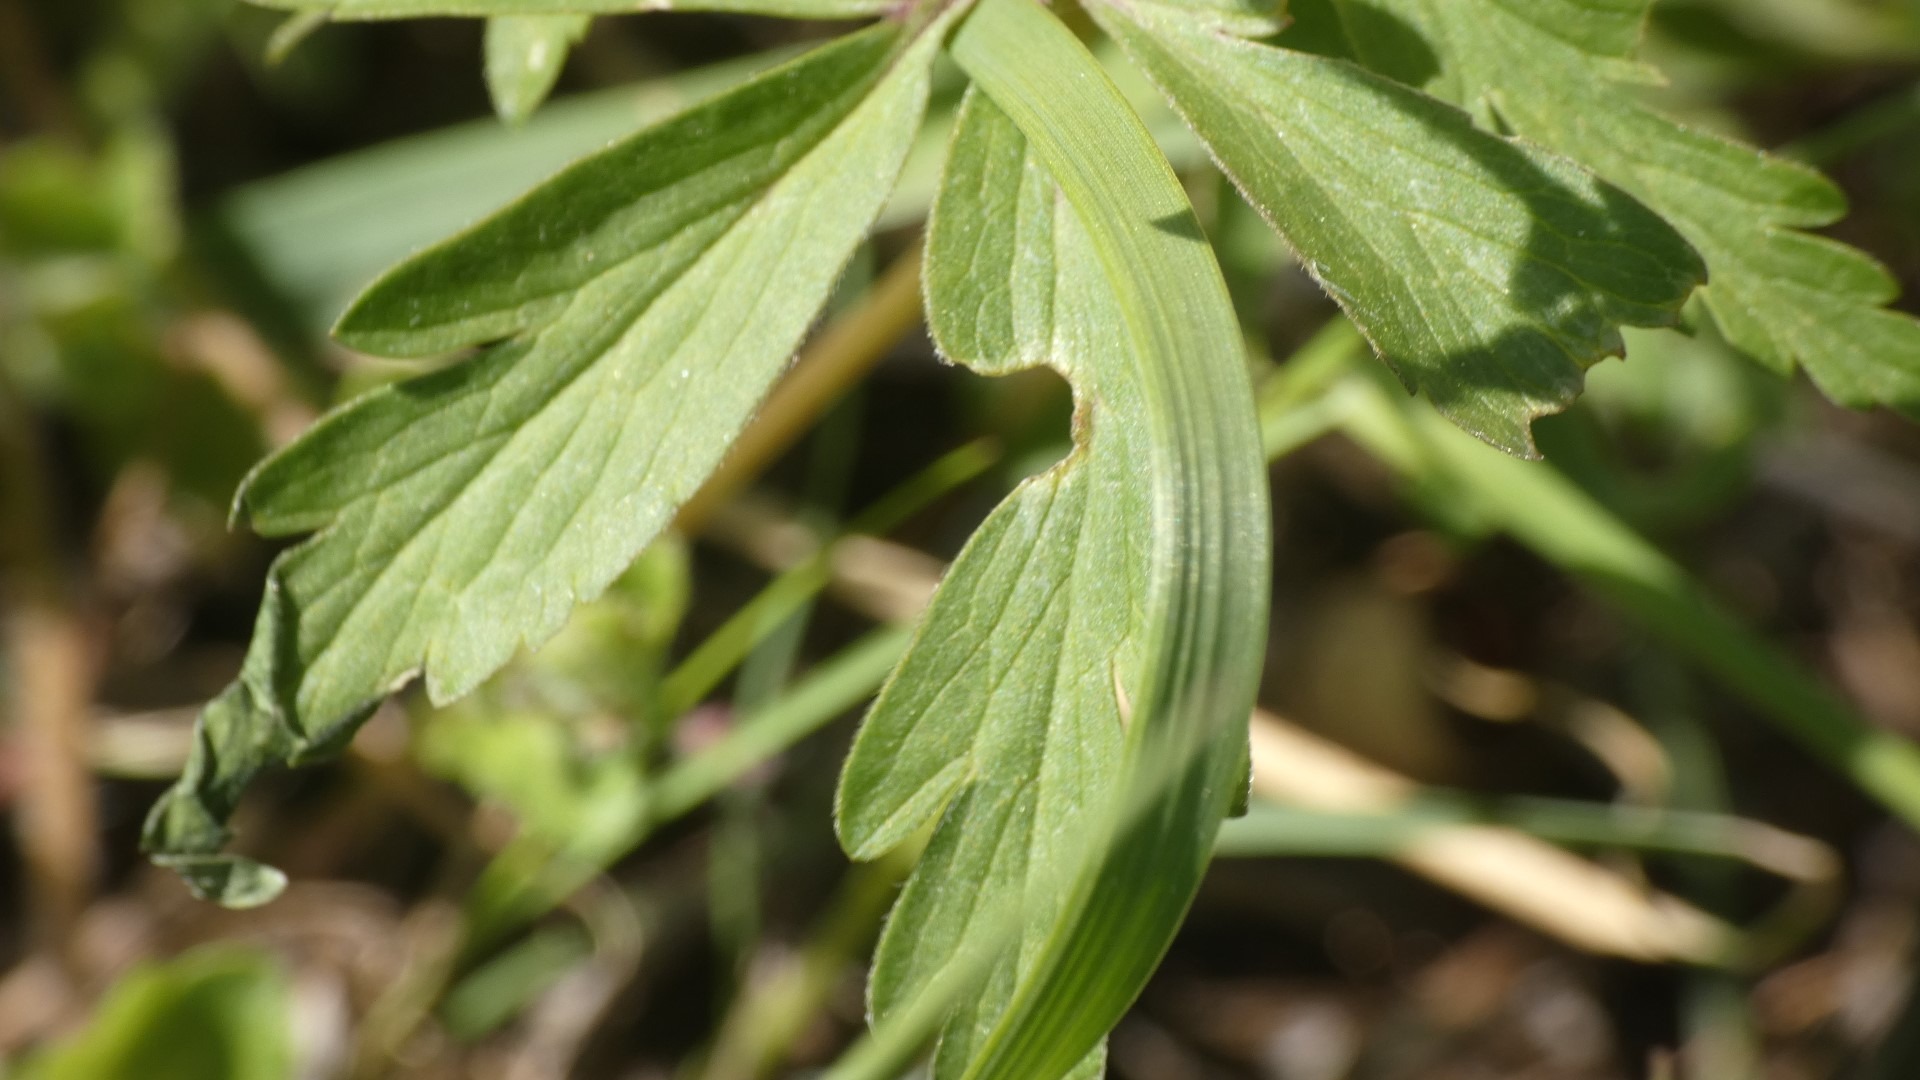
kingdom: Plantae
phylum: Tracheophyta
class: Magnoliopsida
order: Ranunculales
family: Ranunculaceae
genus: Anemone
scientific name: Anemone ranunculoides
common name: Gul anemone
